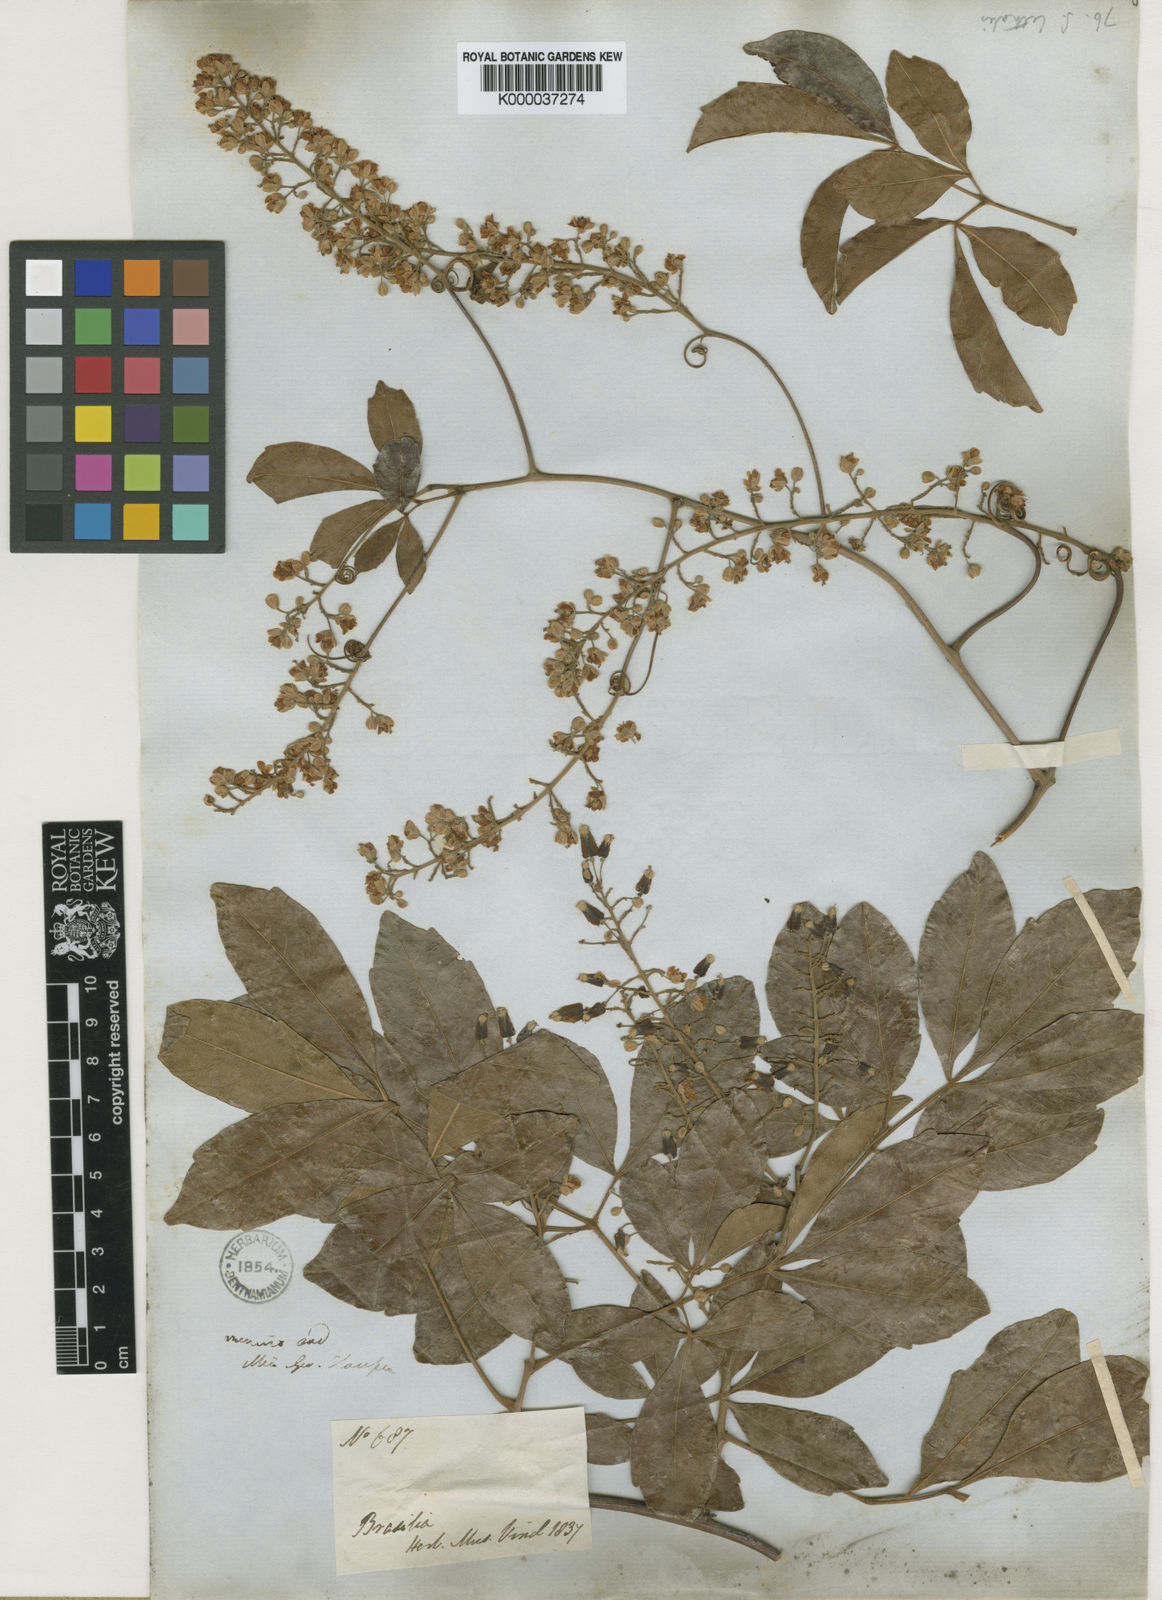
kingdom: Plantae
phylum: Tracheophyta
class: Magnoliopsida
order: Sapindales
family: Sapindaceae
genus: Serjania
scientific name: Serjania lethalis
